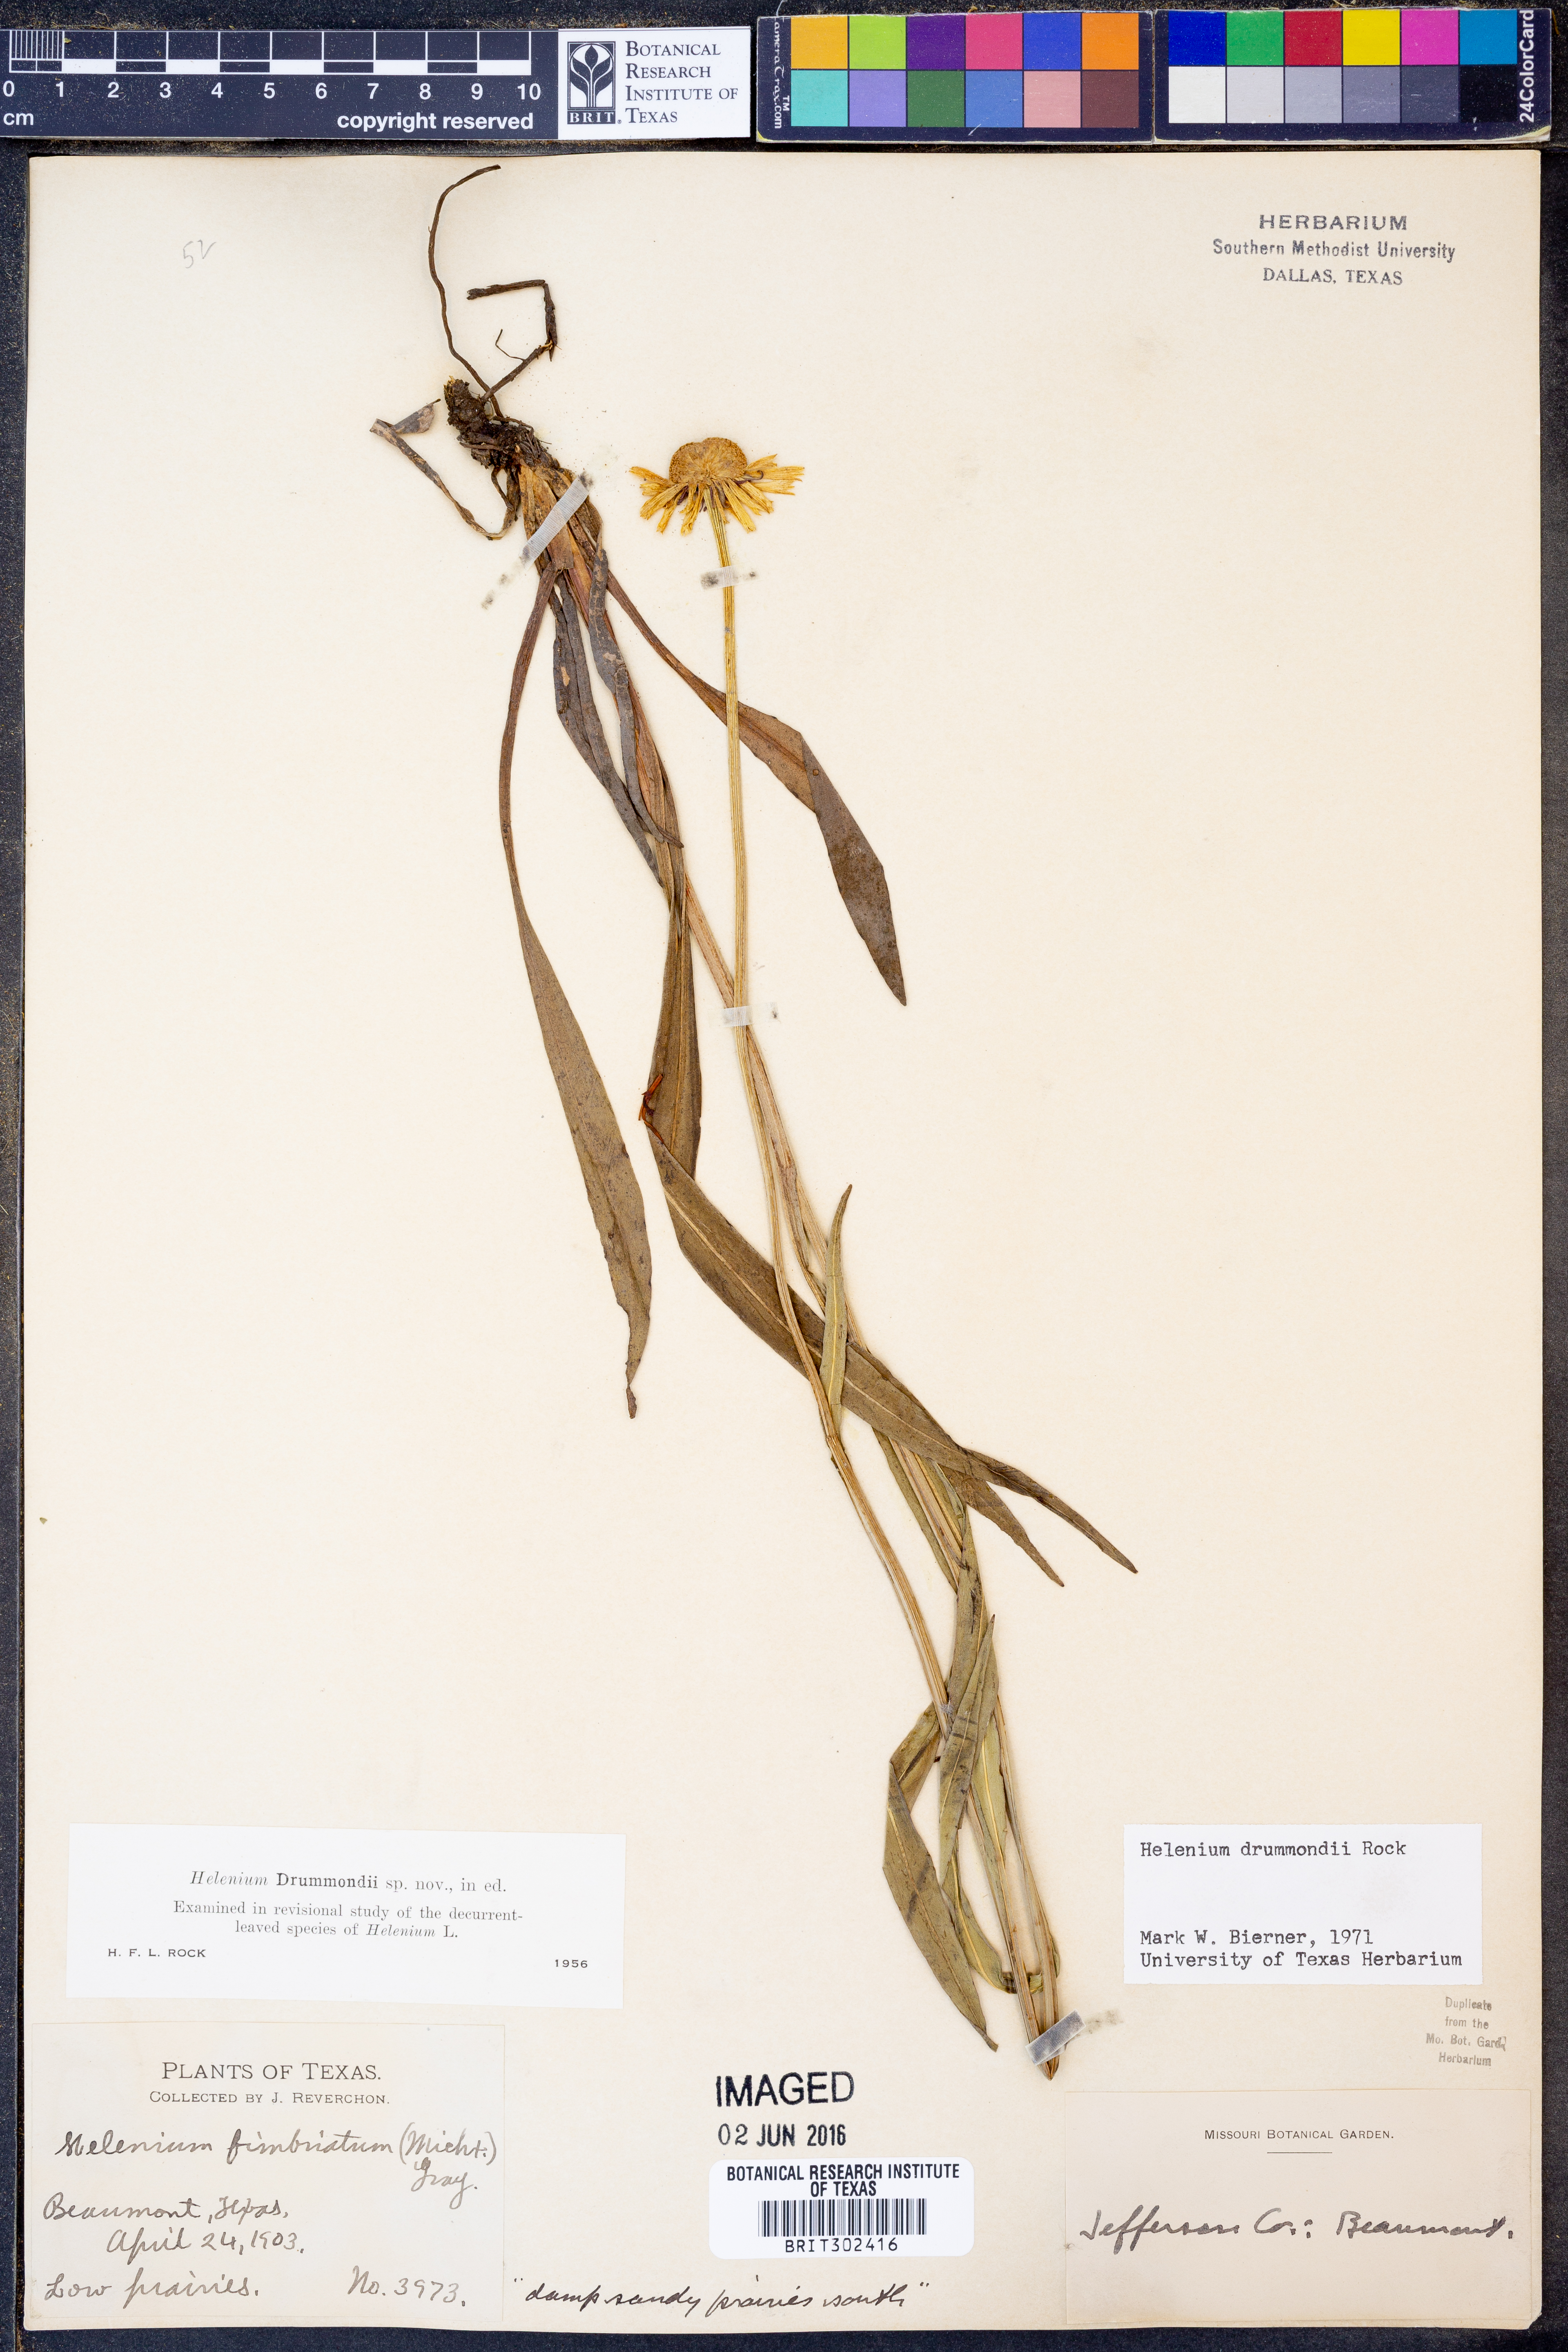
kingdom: Plantae
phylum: Tracheophyta
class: Magnoliopsida
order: Asterales
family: Asteraceae
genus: Helenium
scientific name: Helenium drummondii
